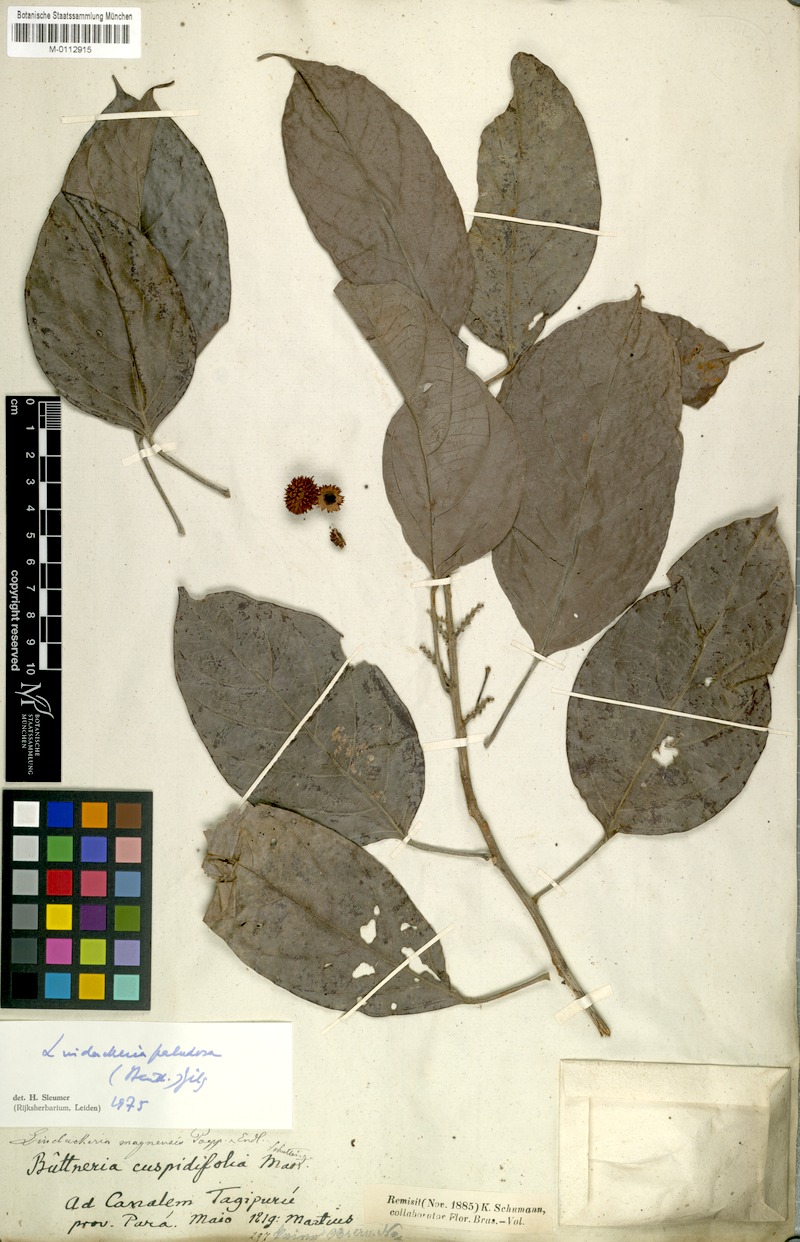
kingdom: Plantae
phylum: Tracheophyta
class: Magnoliopsida
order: Malpighiales
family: Achariaceae
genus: Lindackeria
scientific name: Lindackeria paludosa
